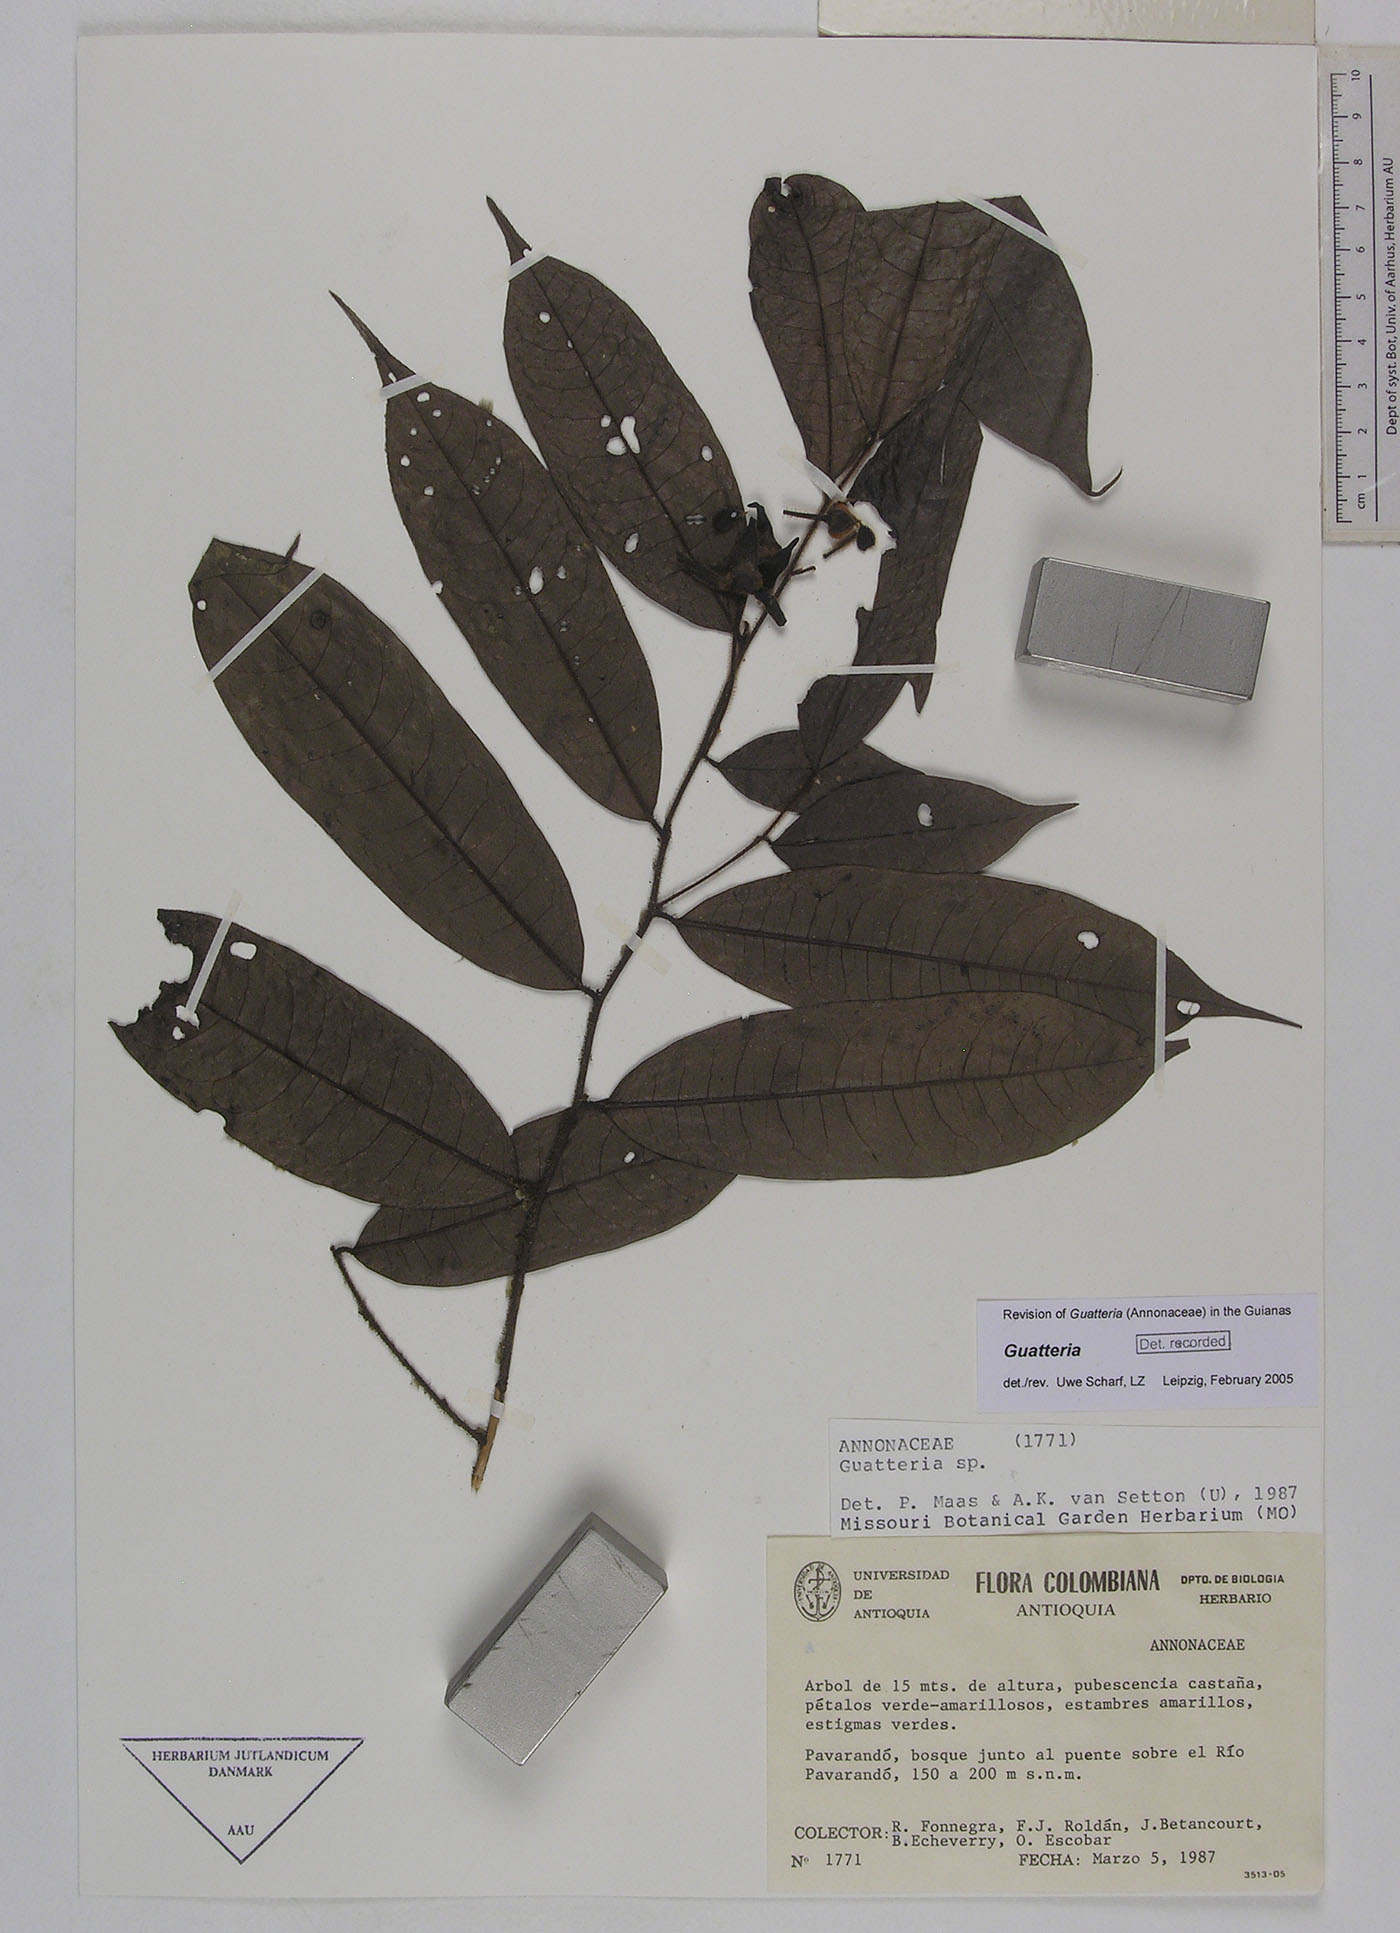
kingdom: Plantae
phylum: Tracheophyta
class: Magnoliopsida
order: Magnoliales
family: Annonaceae
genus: Guatteria
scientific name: Guatteria hirsuta
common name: Laurel
